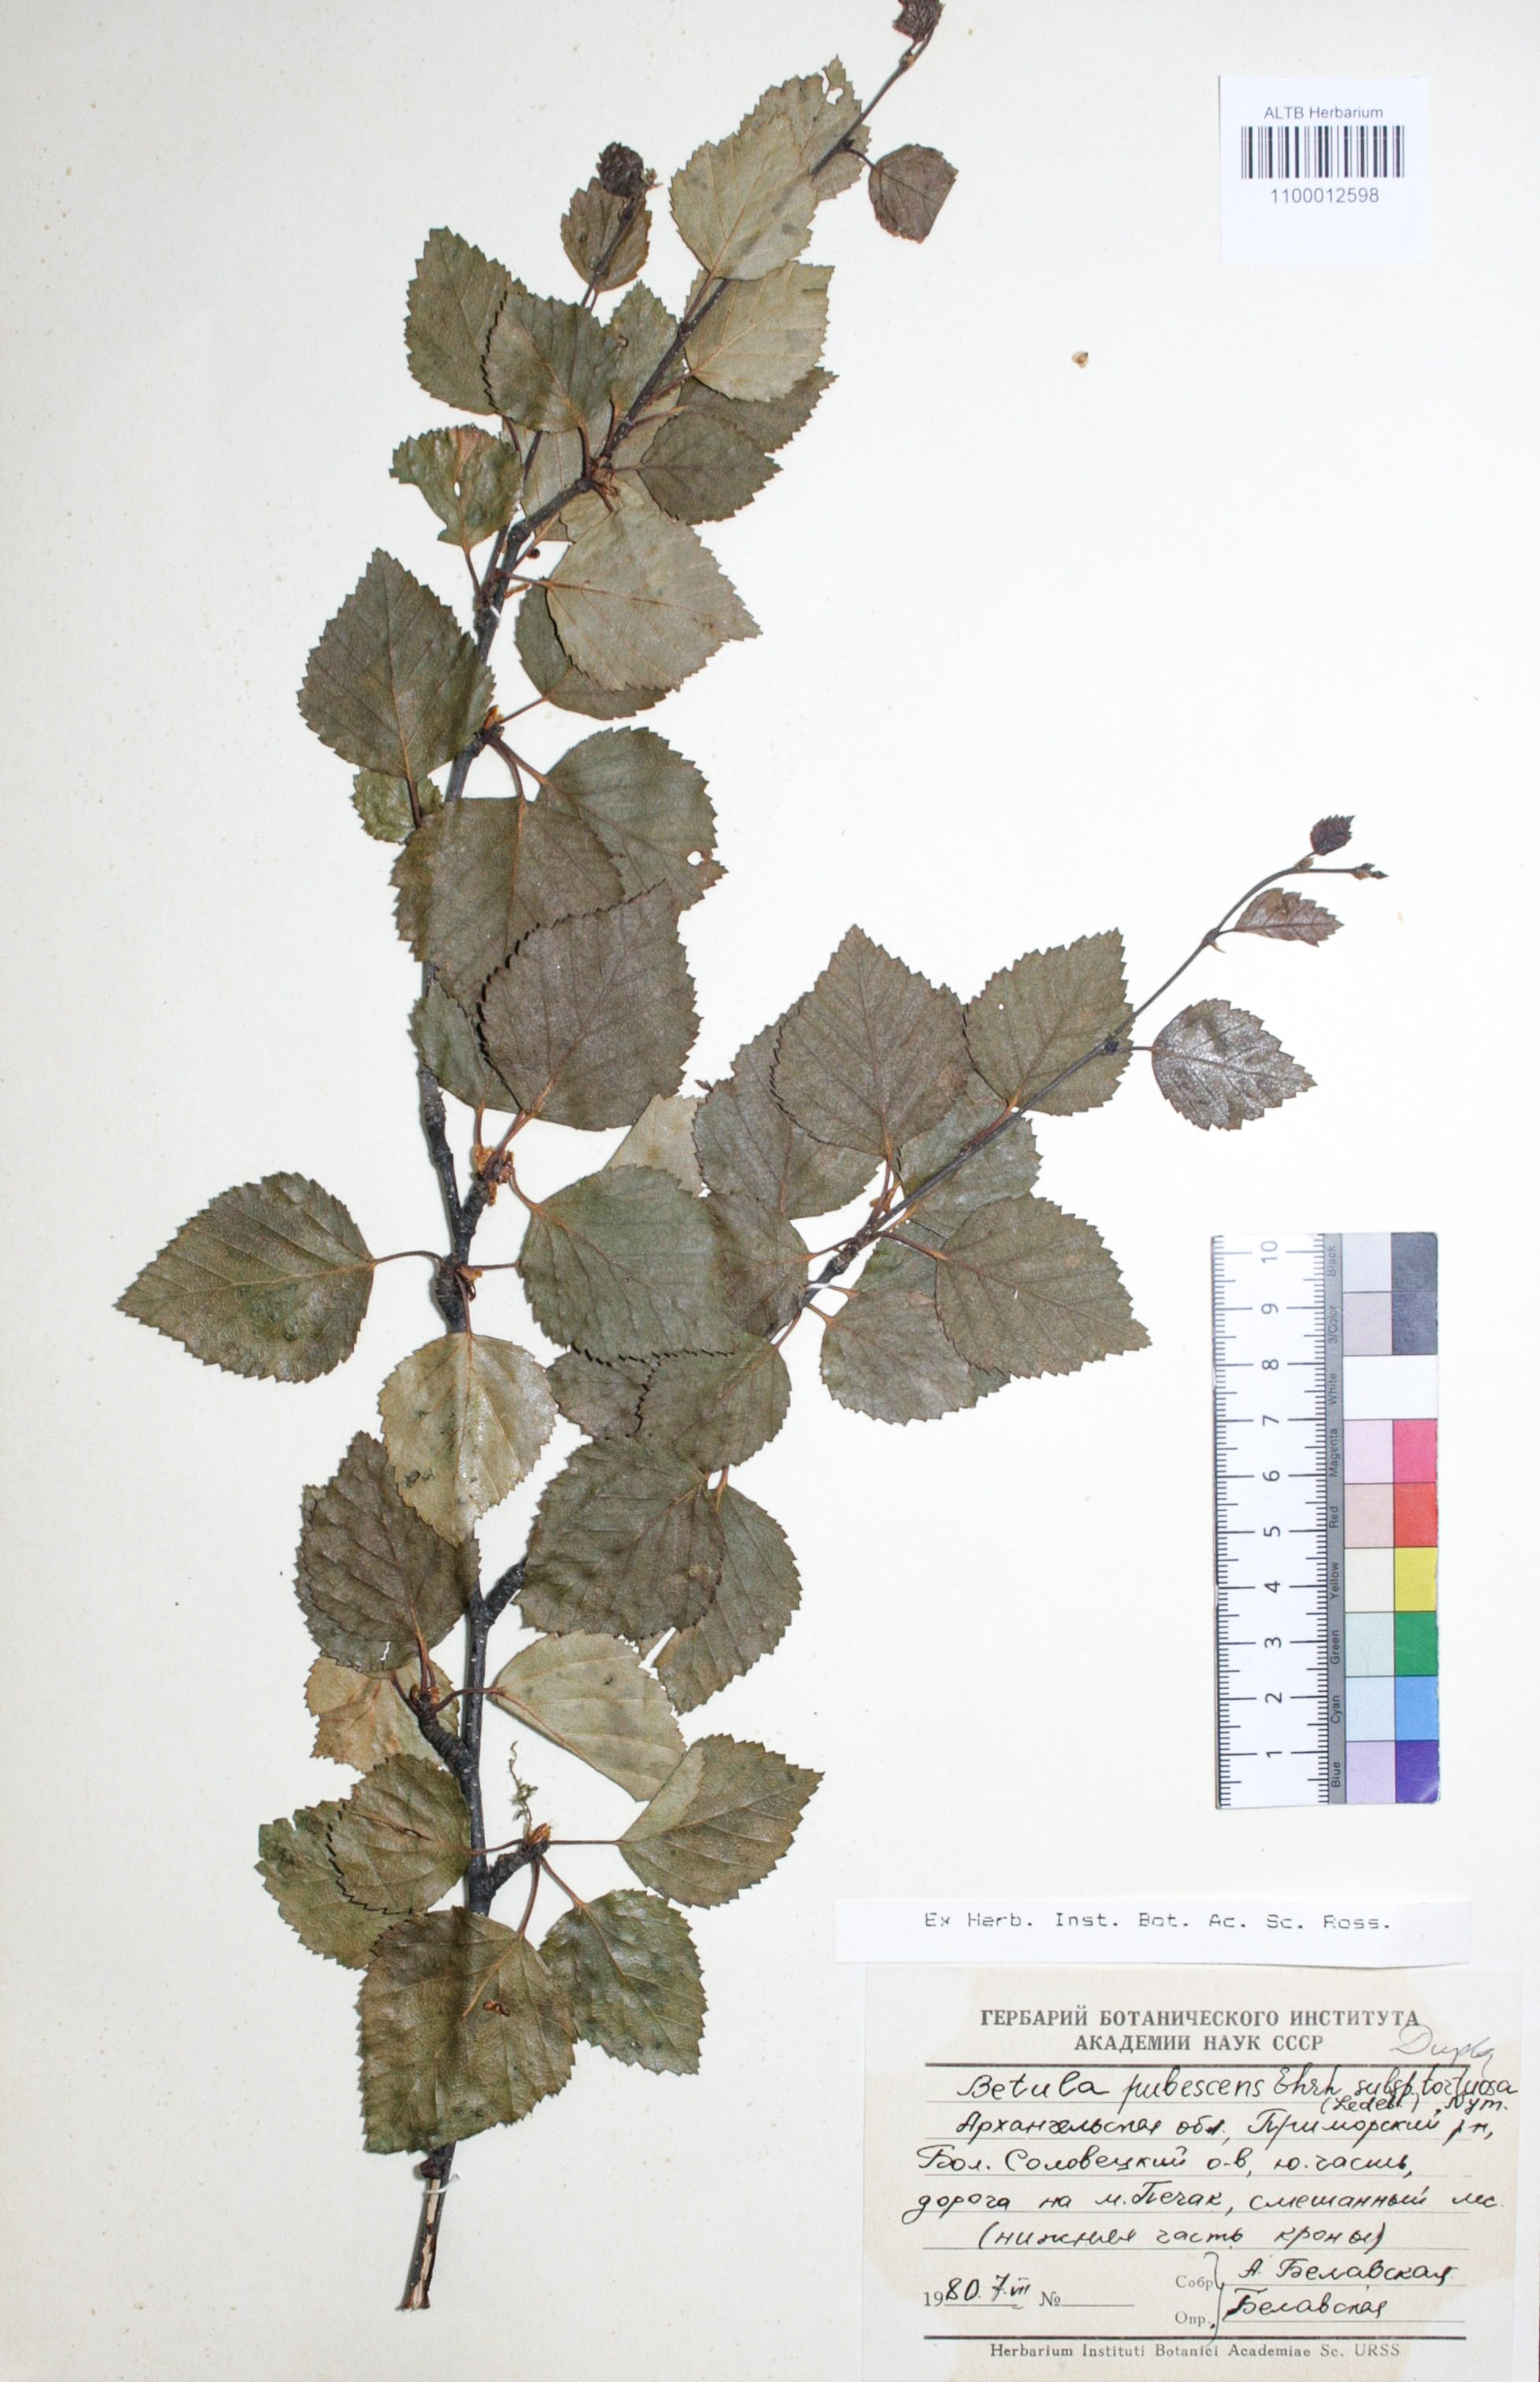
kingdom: Plantae
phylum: Tracheophyta
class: Magnoliopsida
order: Fagales
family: Betulaceae
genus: Betula
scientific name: Betula pubescens
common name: Downy birch
